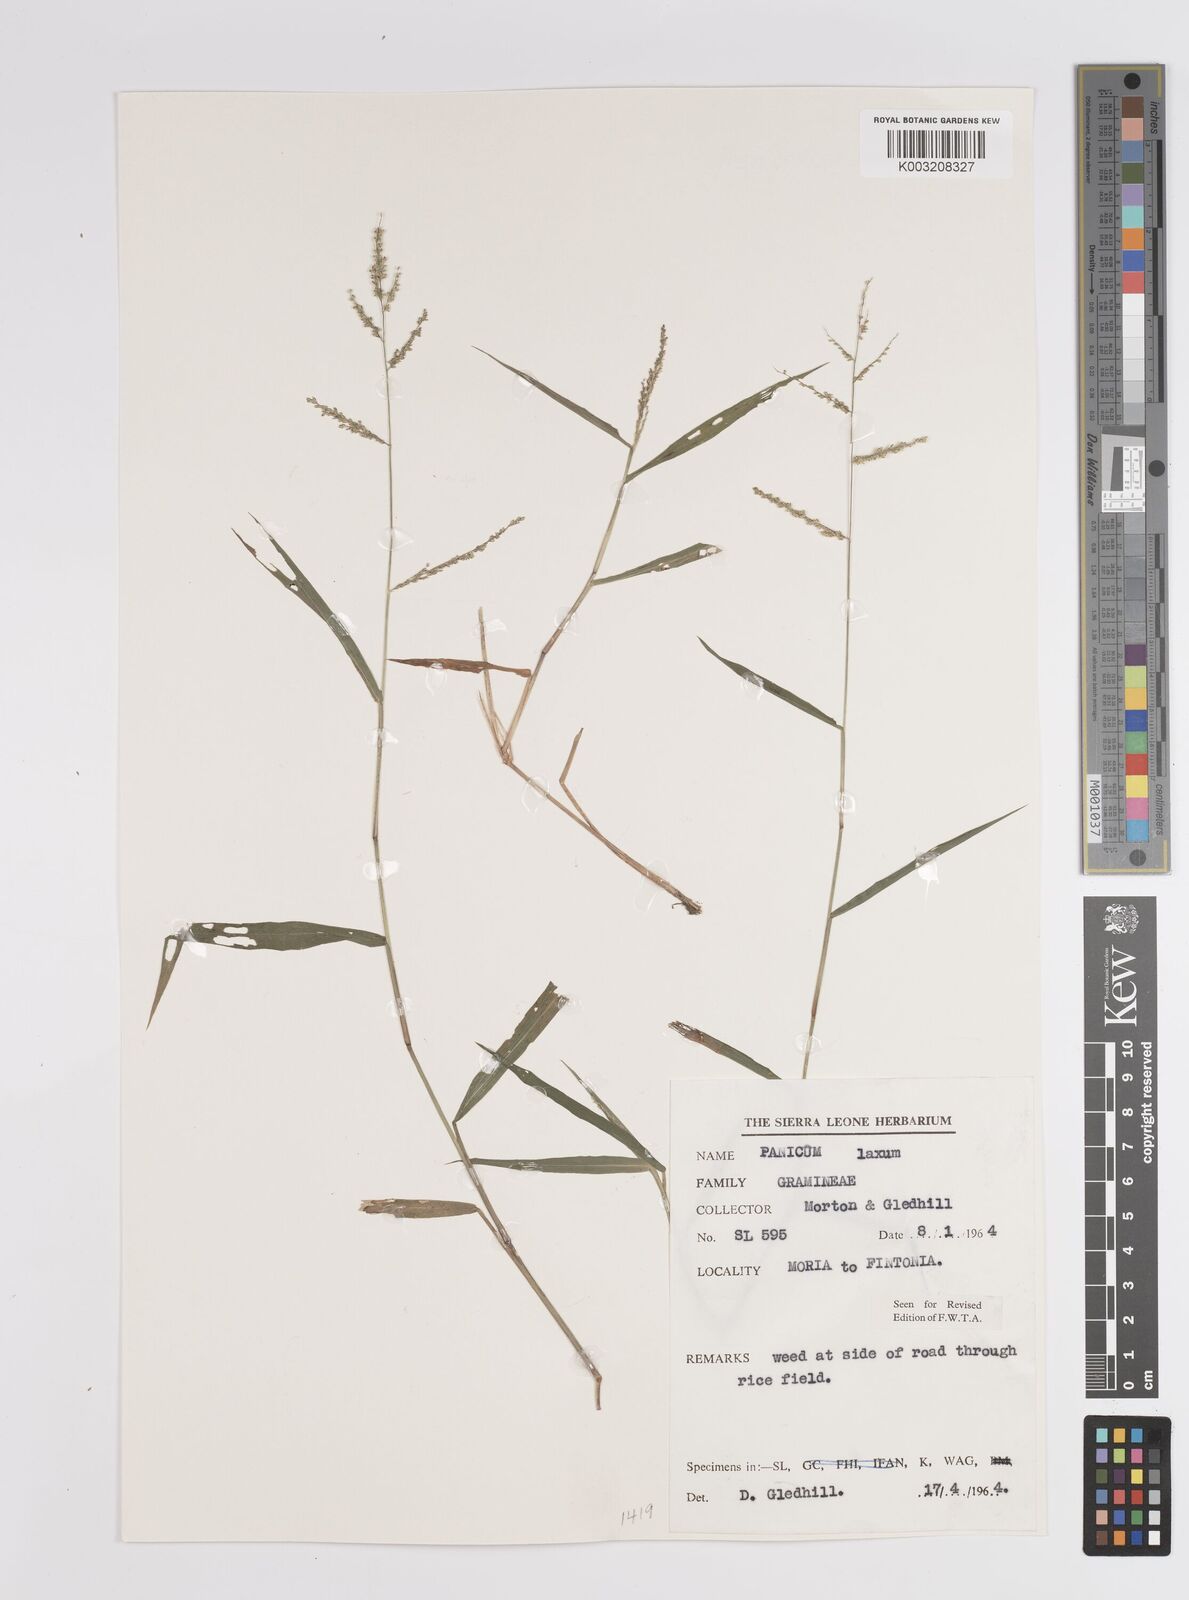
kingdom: Plantae
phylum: Tracheophyta
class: Liliopsida
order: Poales
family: Poaceae
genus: Steinchisma
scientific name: Steinchisma laxum
